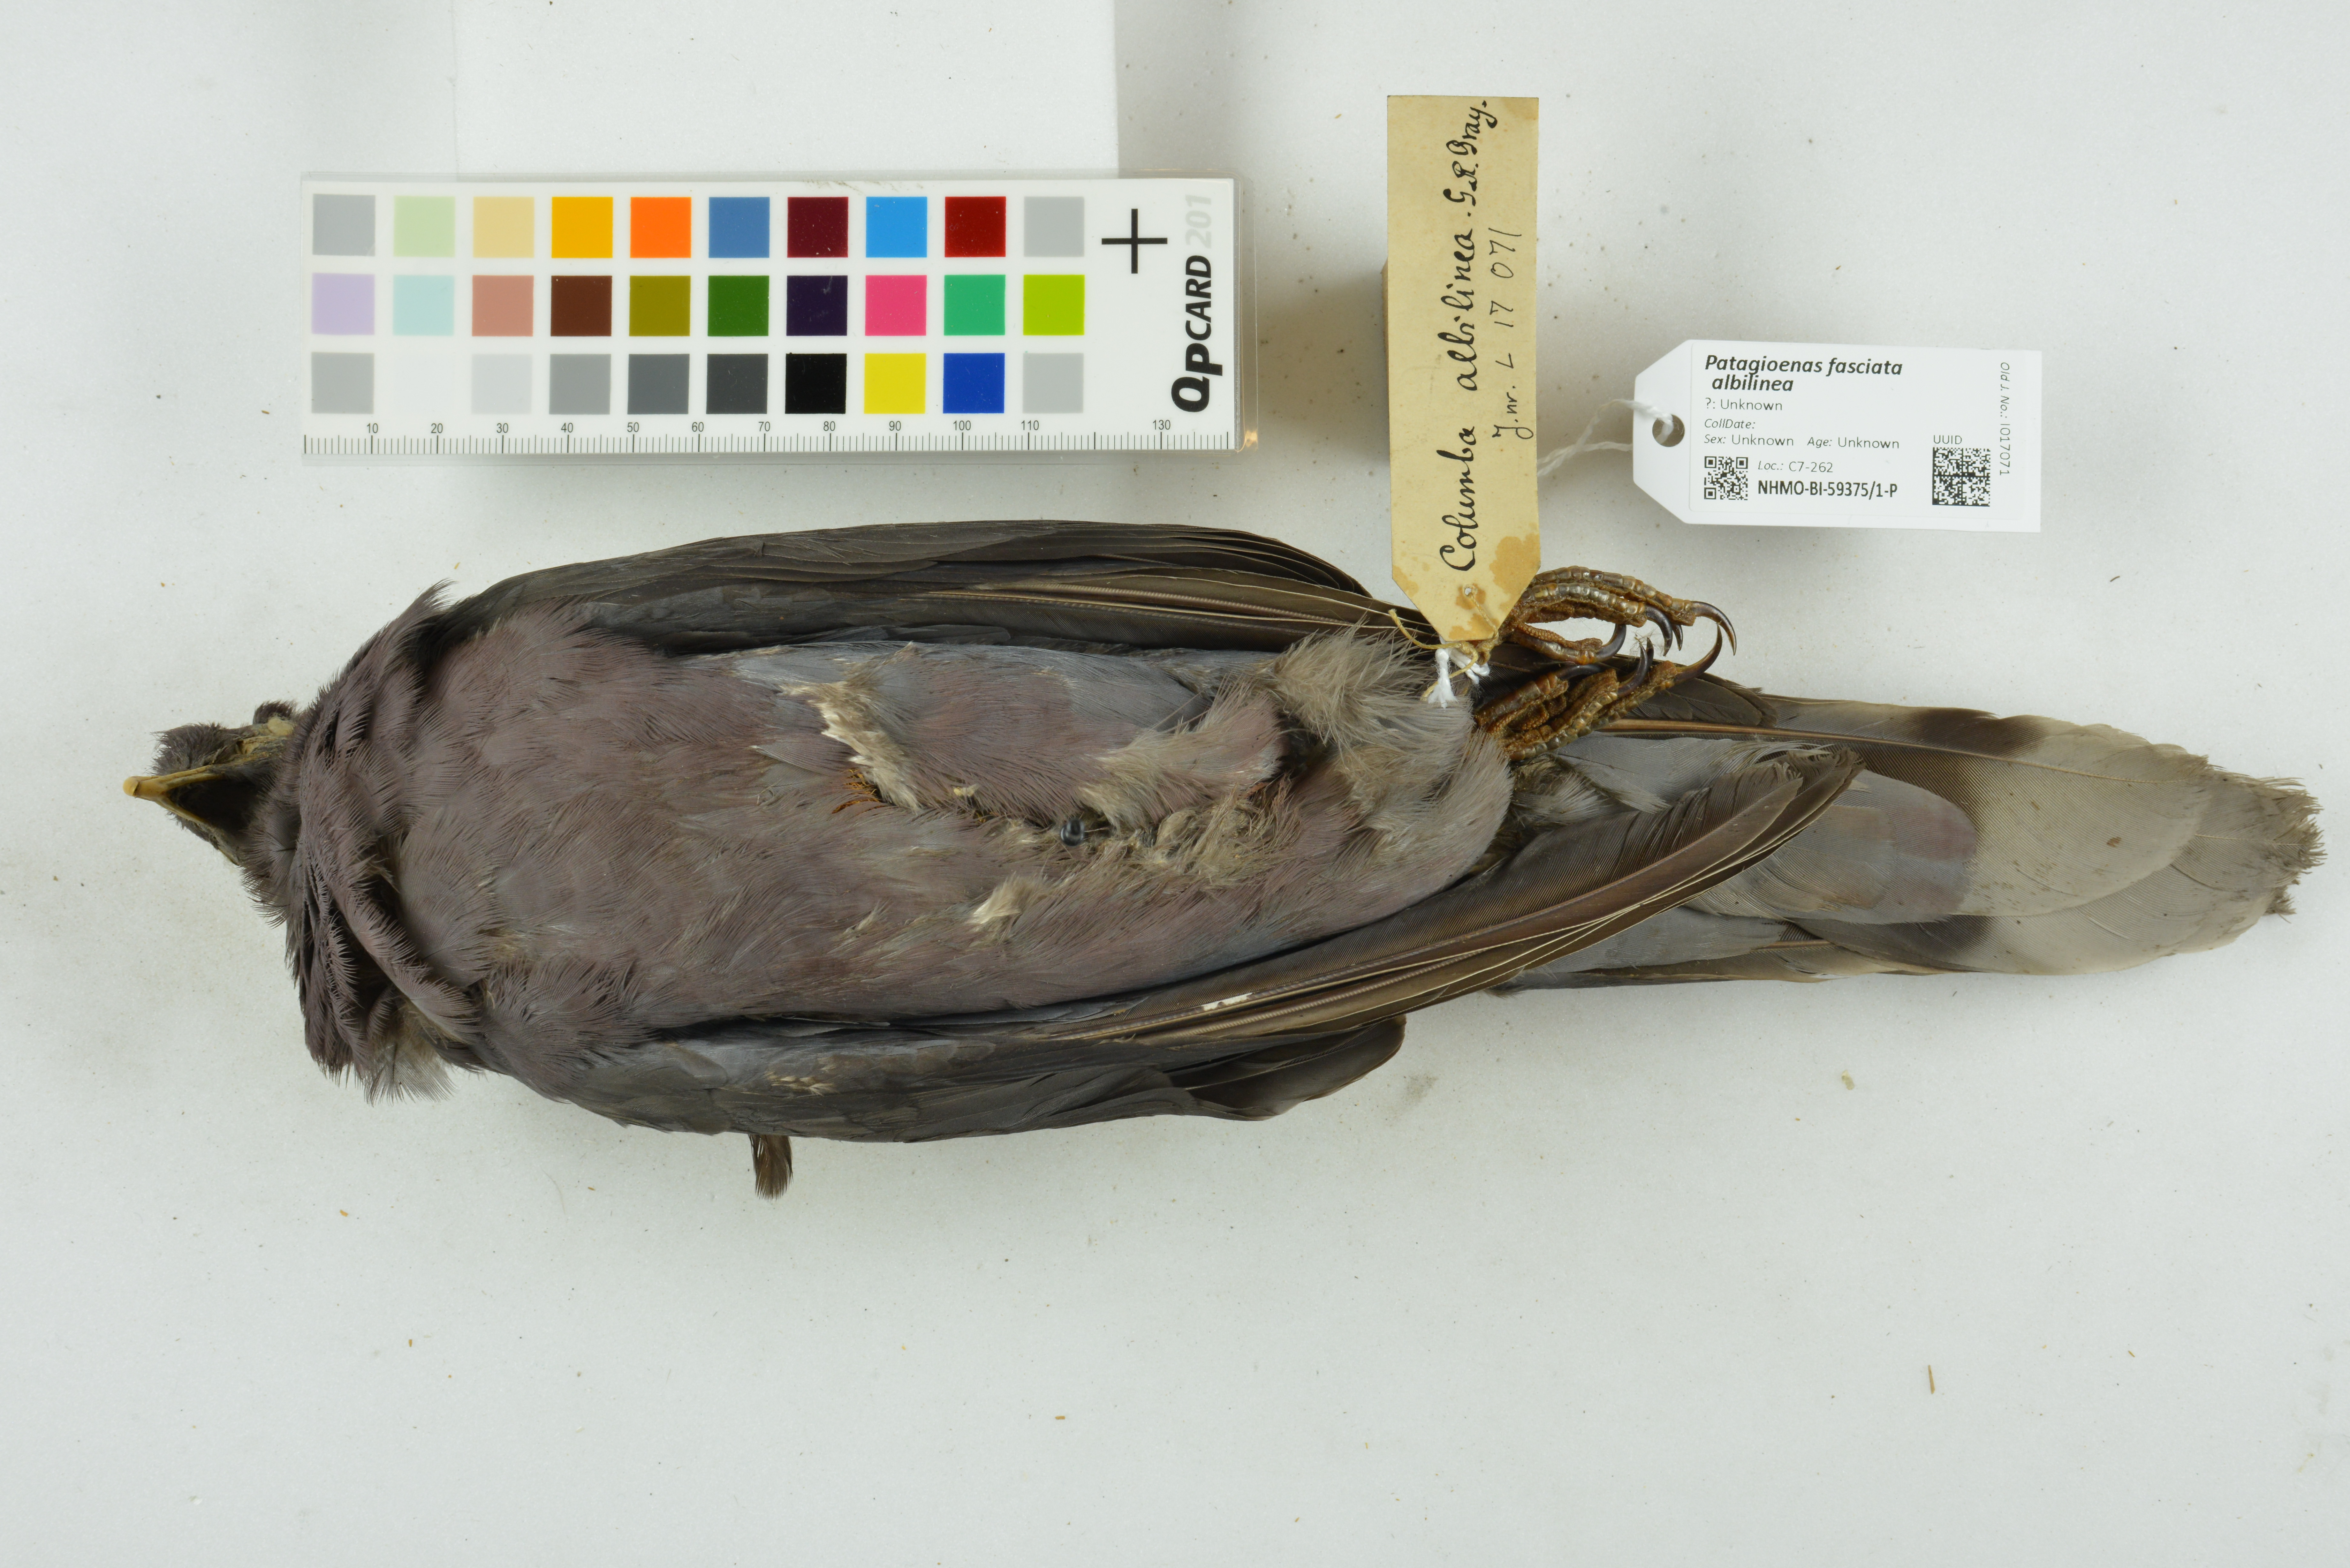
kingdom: Animalia
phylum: Chordata
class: Aves
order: Columbiformes
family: Columbidae
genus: Patagioenas
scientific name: Patagioenas fasciata
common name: Band-tailed pigeon
